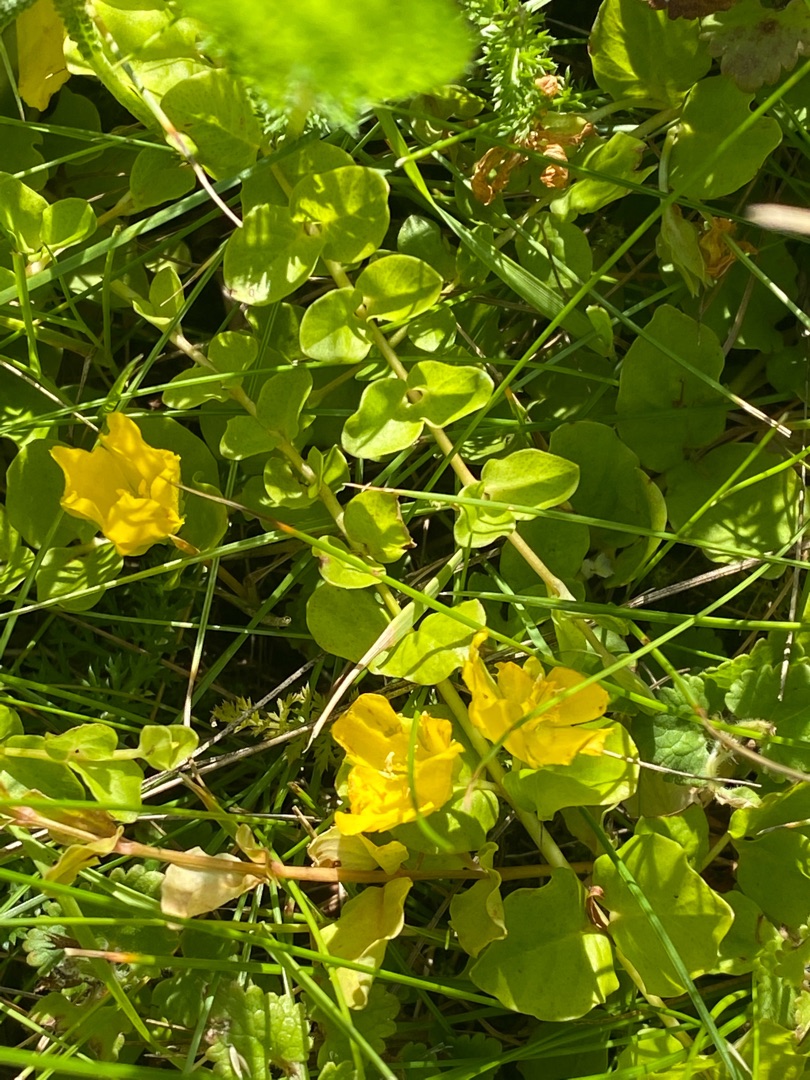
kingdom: Plantae
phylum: Tracheophyta
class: Magnoliopsida
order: Ericales
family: Primulaceae
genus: Lysimachia
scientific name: Lysimachia nummularia
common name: Pengebladet fredløs
